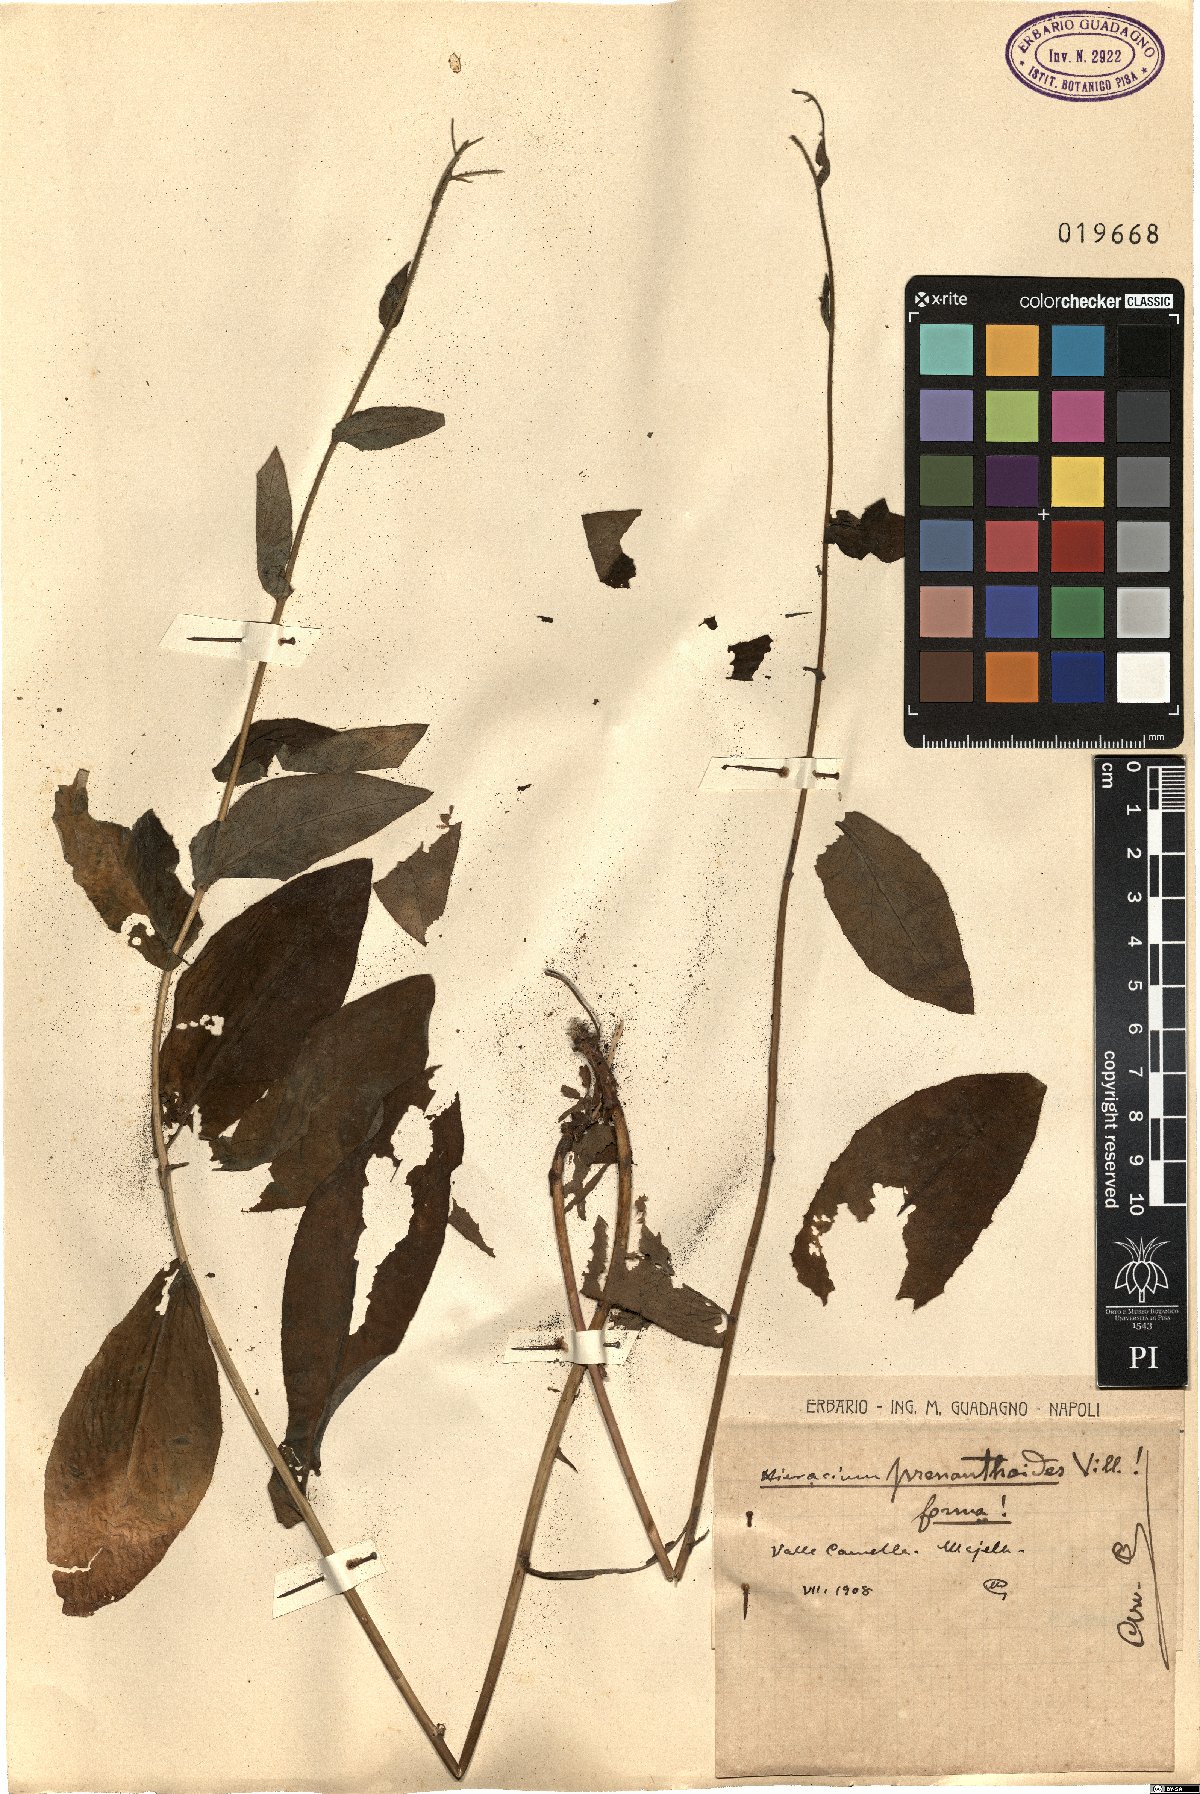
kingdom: Plantae
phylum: Tracheophyta
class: Magnoliopsida
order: Asterales
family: Asteraceae
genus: Hieracium
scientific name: Hieracium prenanthoides
